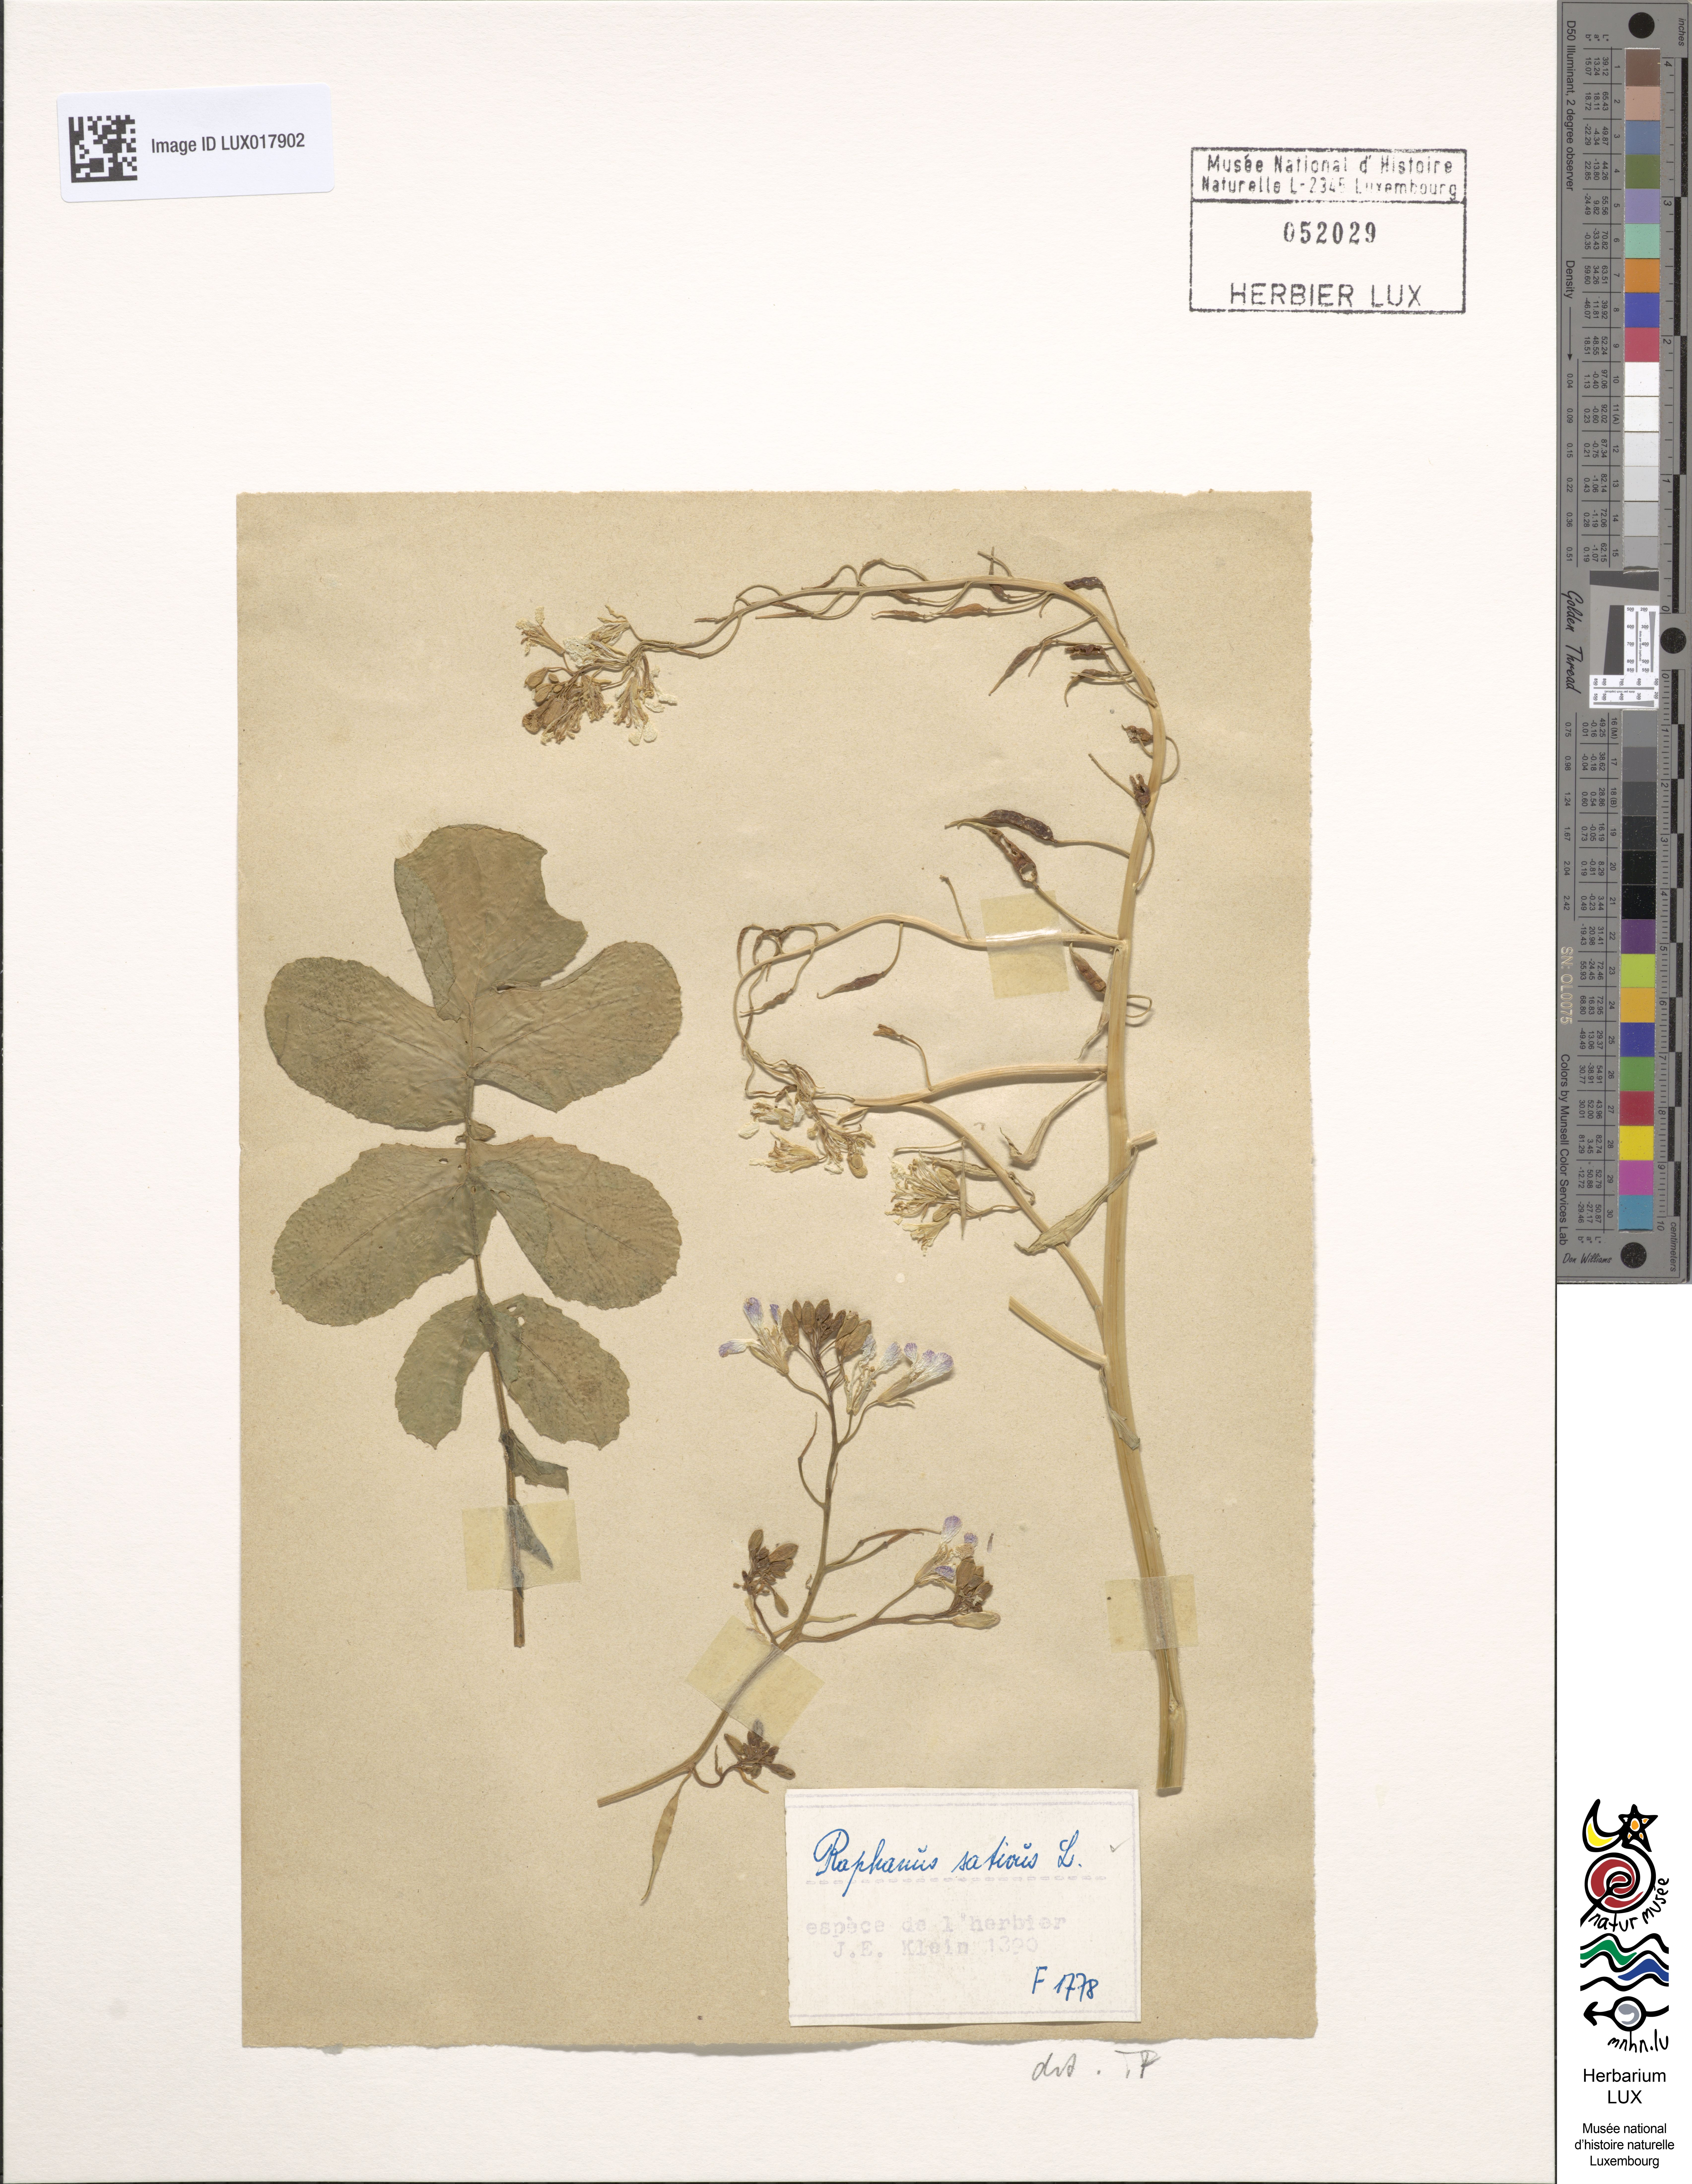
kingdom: Plantae
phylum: Tracheophyta
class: Magnoliopsida
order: Brassicales
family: Brassicaceae
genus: Raphanus
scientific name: Raphanus sativus
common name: Cultivated radish
